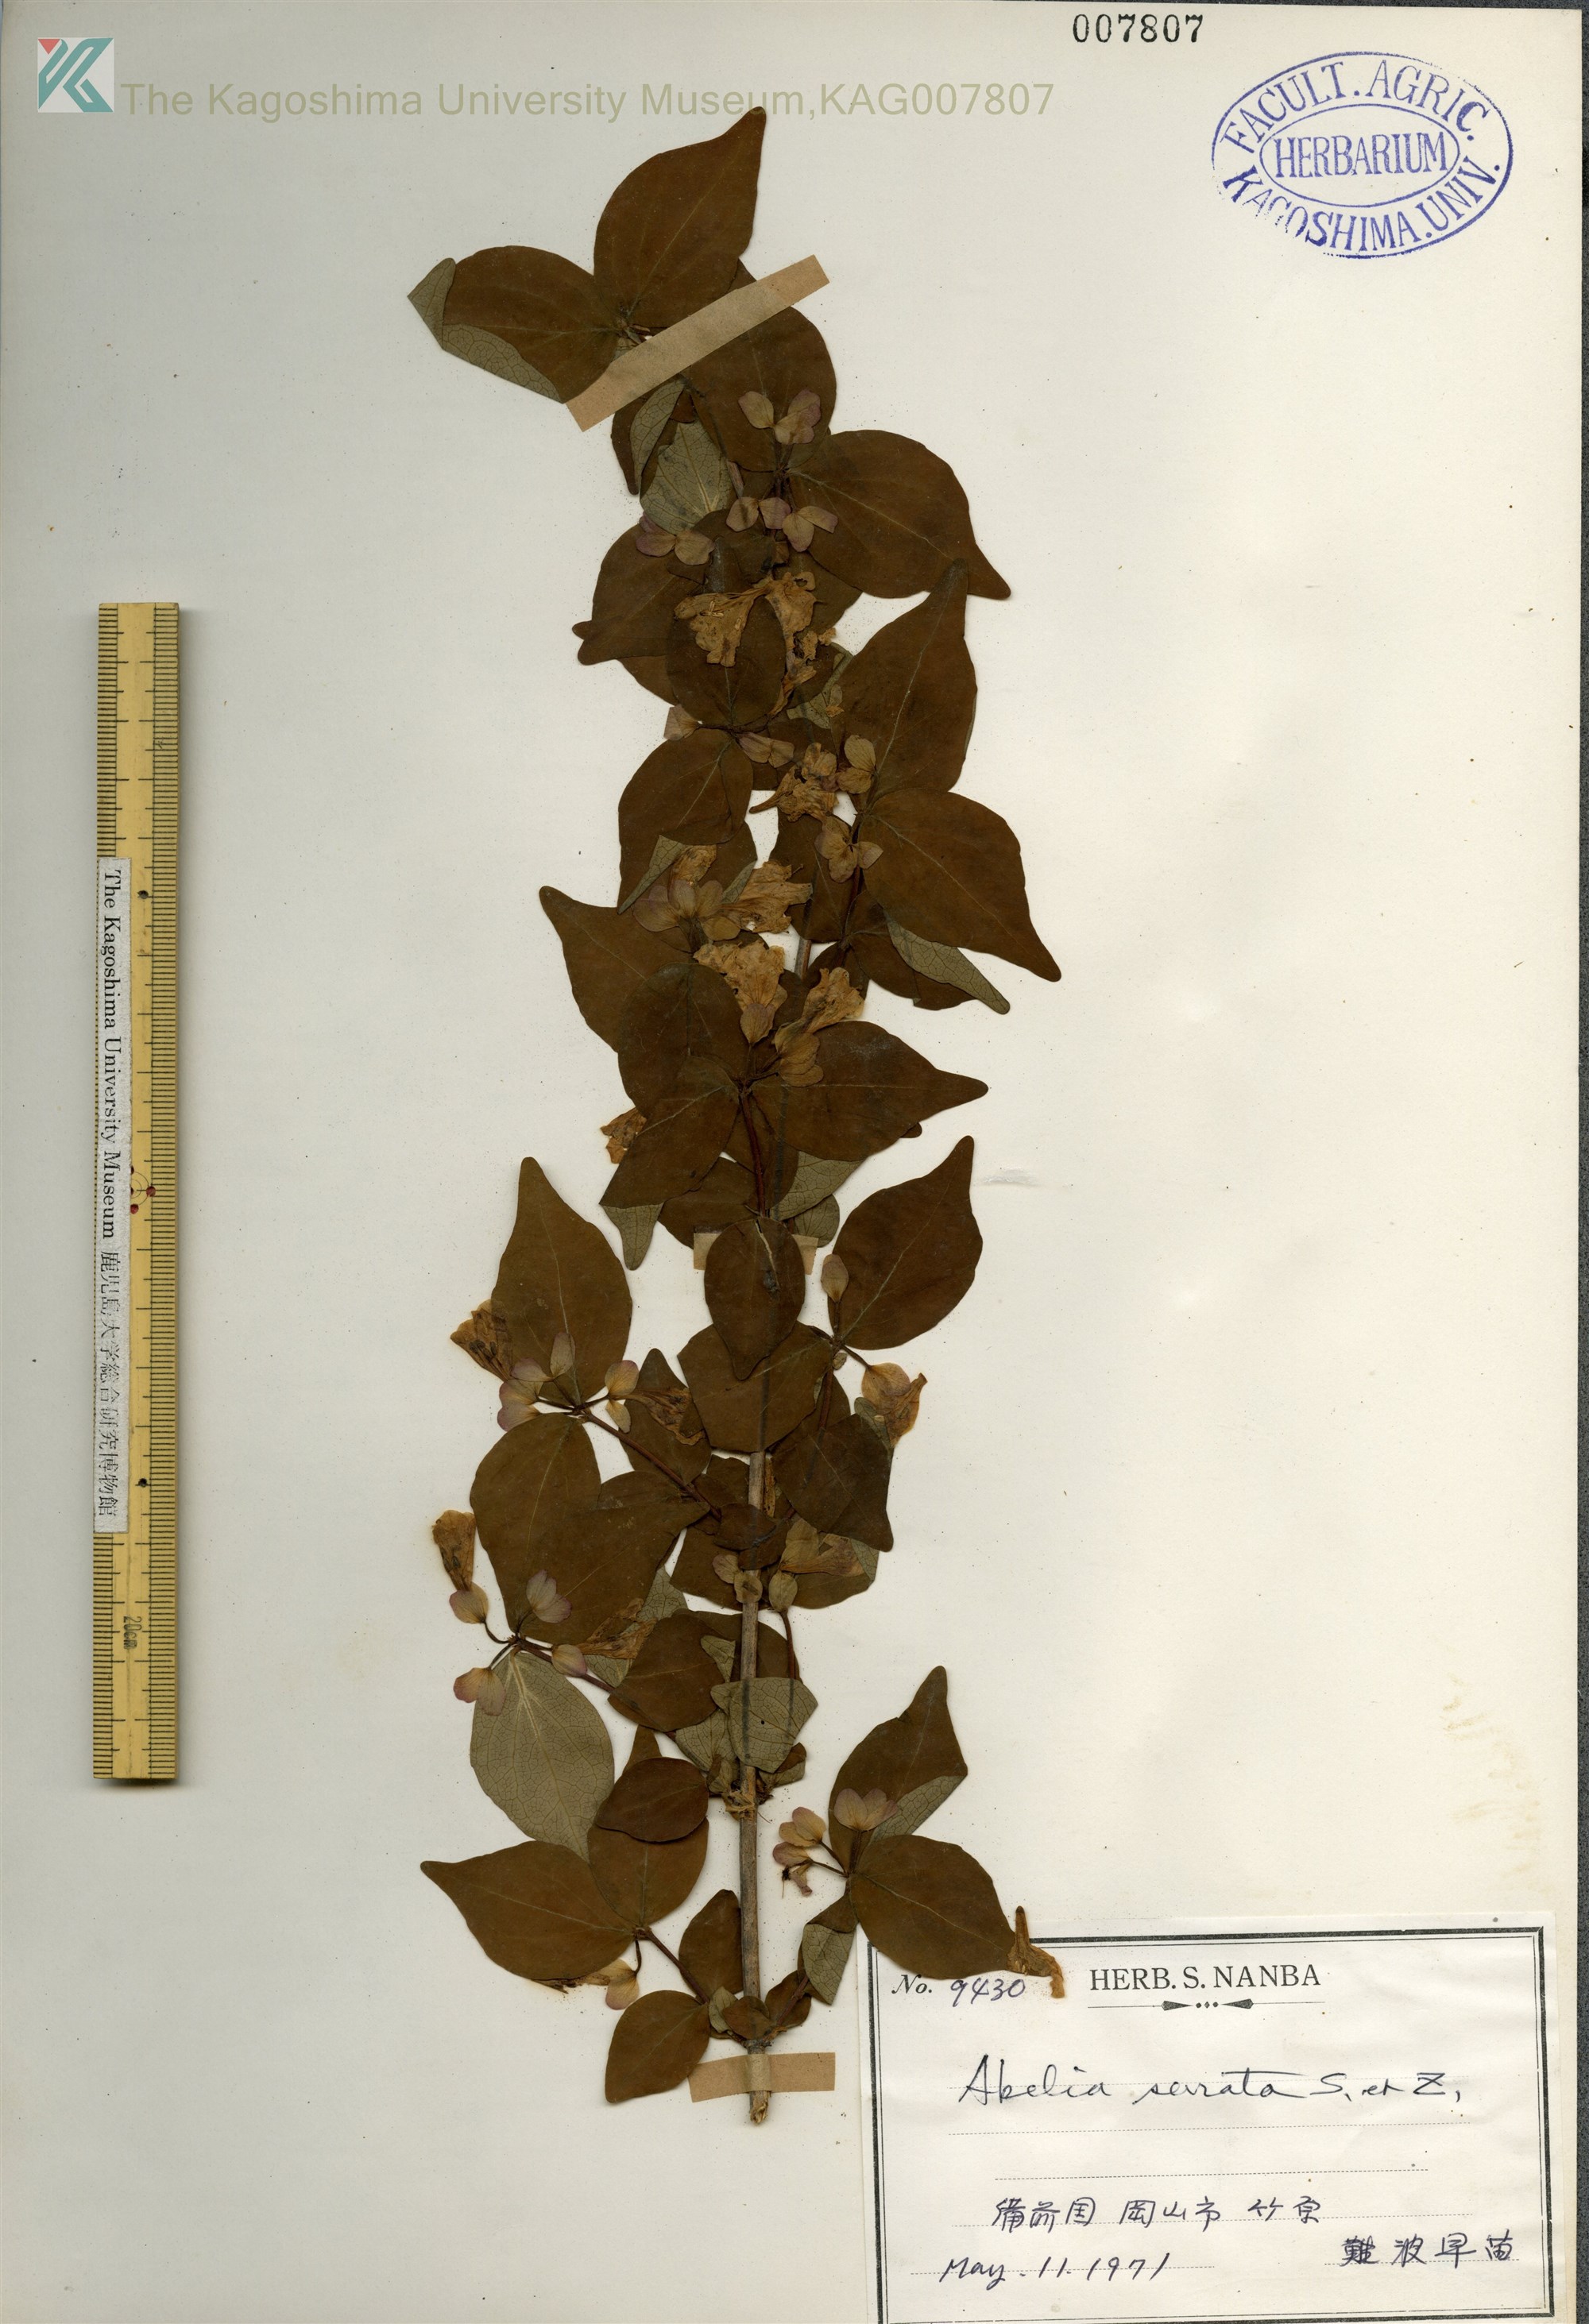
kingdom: Plantae
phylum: Tracheophyta
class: Magnoliopsida
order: Dipsacales
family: Caprifoliaceae
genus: Diabelia
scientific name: Diabelia spathulata
